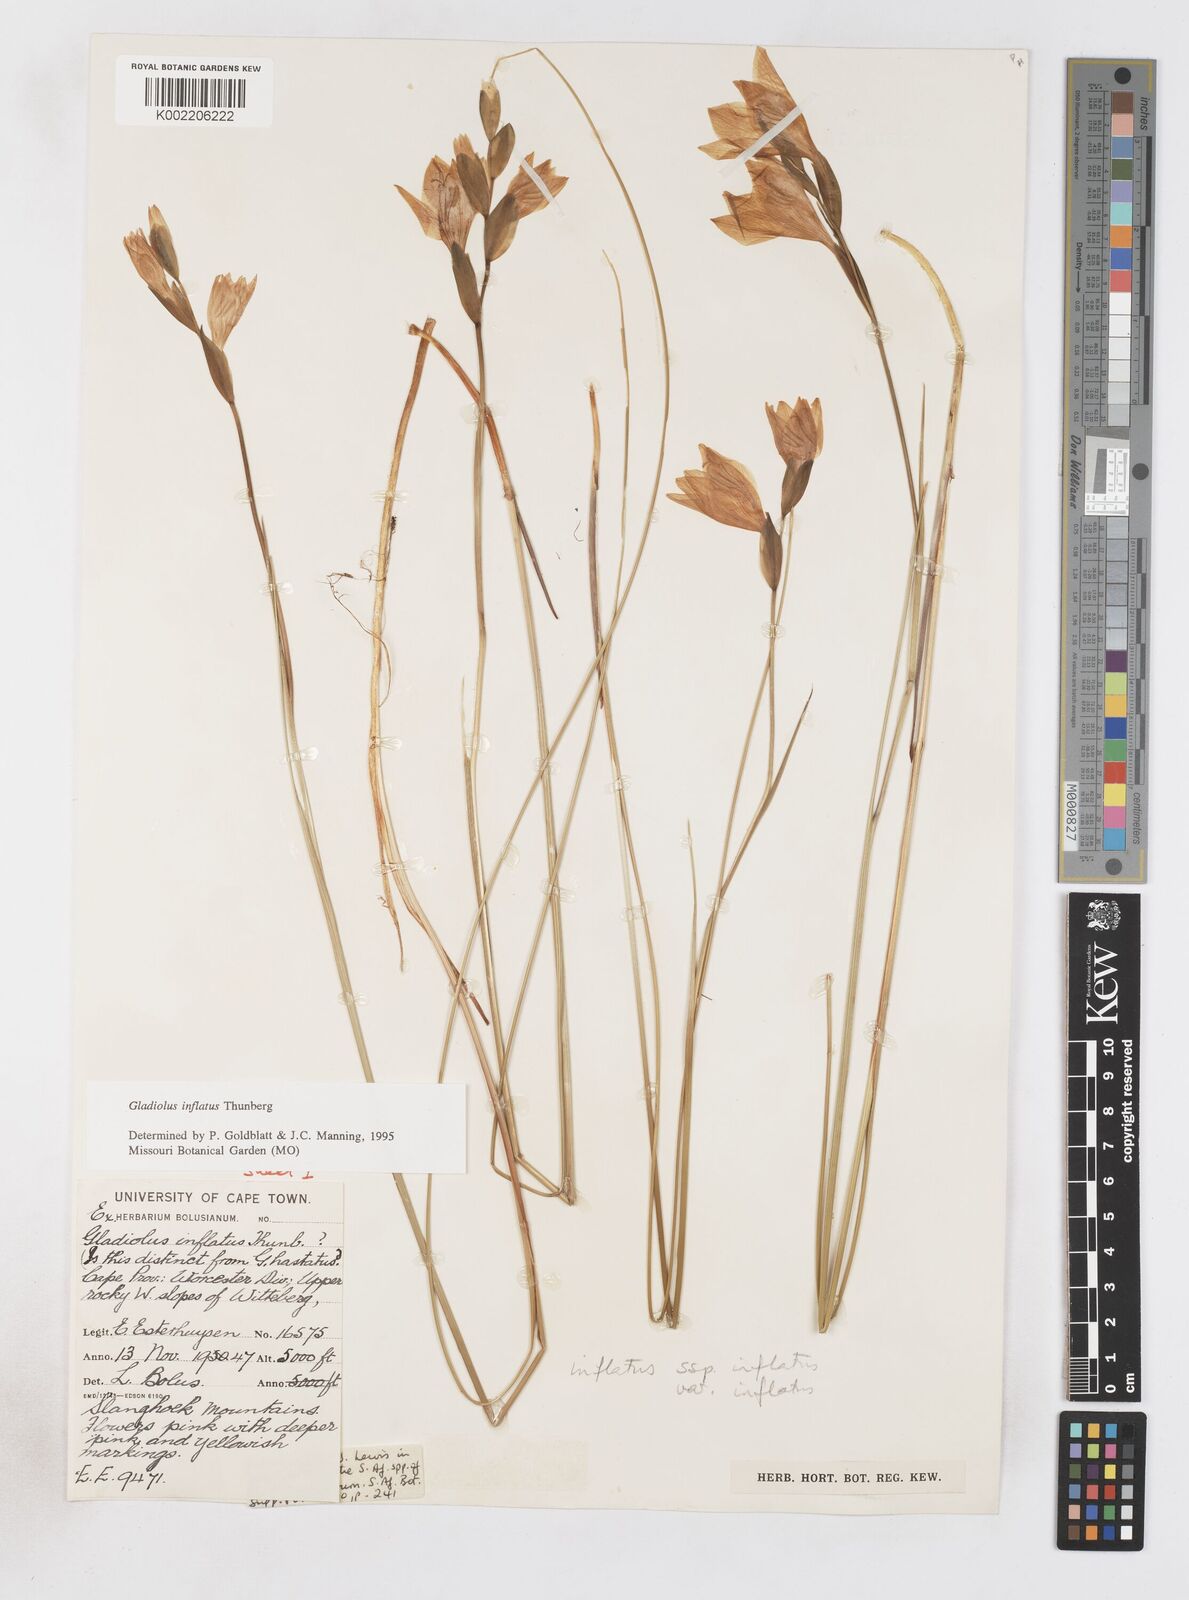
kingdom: Plantae
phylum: Tracheophyta
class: Liliopsida
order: Asparagales
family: Iridaceae
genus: Gladiolus
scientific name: Gladiolus inflatus
